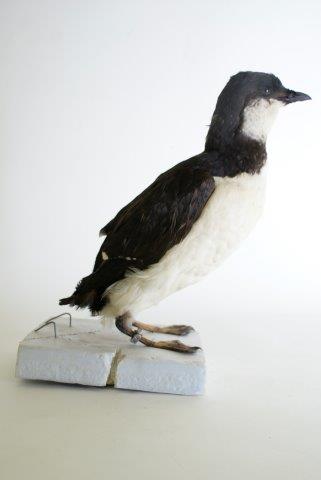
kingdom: Animalia
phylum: Chordata
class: Aves
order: Charadriiformes
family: Alcidae
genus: Uria
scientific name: Uria lomvia
